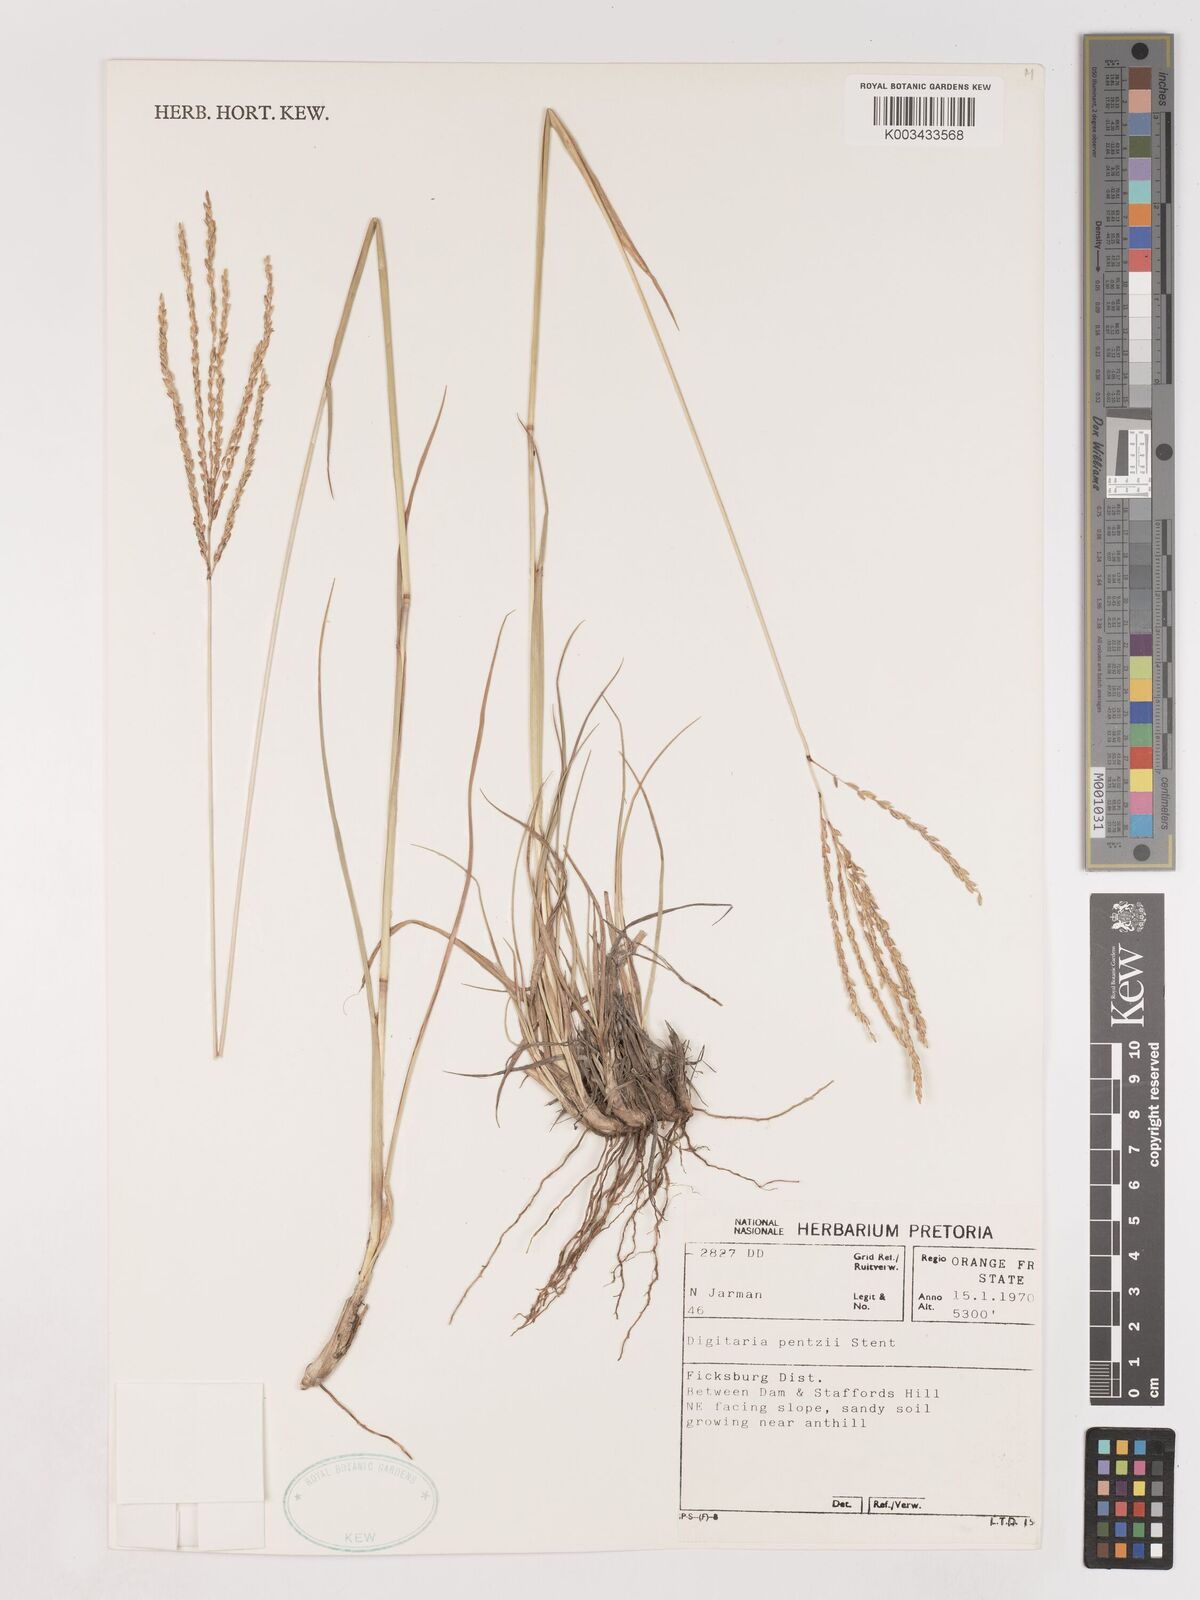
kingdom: Plantae
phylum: Tracheophyta
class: Liliopsida
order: Poales
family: Poaceae
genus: Digitaria
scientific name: Digitaria eriantha
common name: Digitgrass
